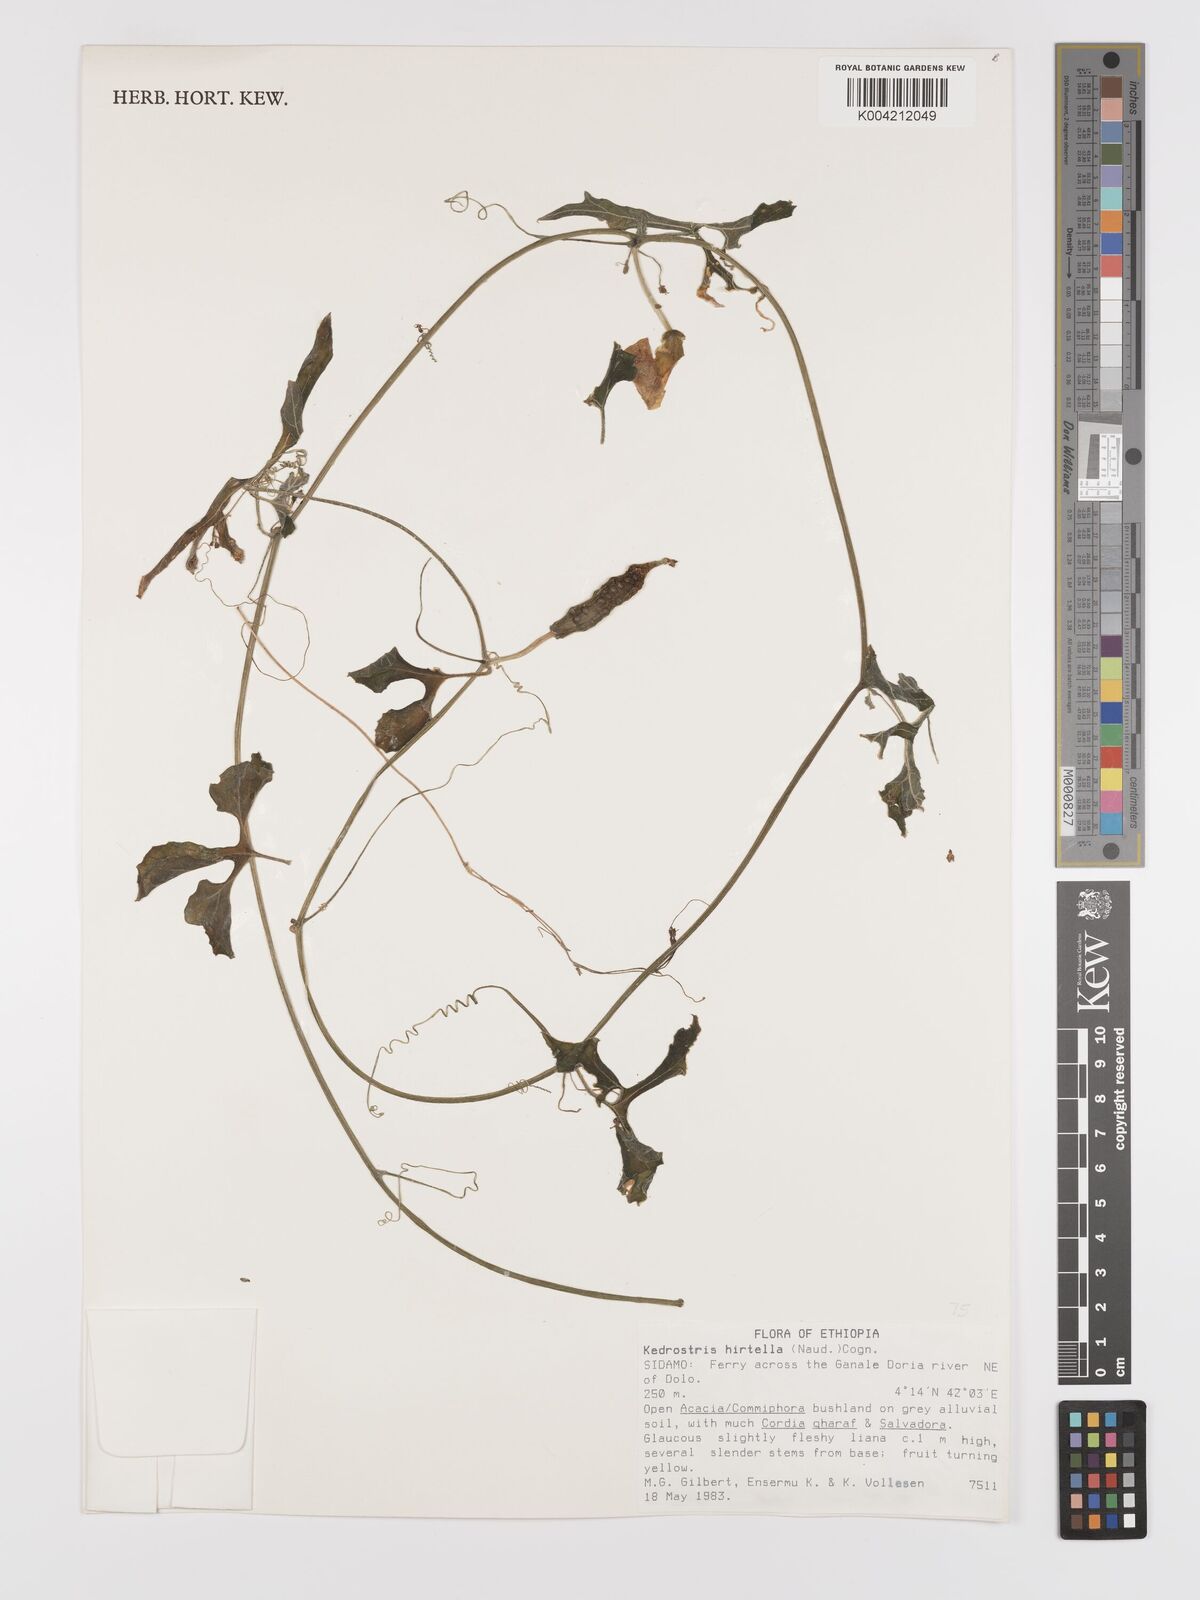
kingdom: Plantae
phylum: Tracheophyta
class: Magnoliopsida
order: Cucurbitales
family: Cucurbitaceae
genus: Kedrostis
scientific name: Kedrostis leloja
